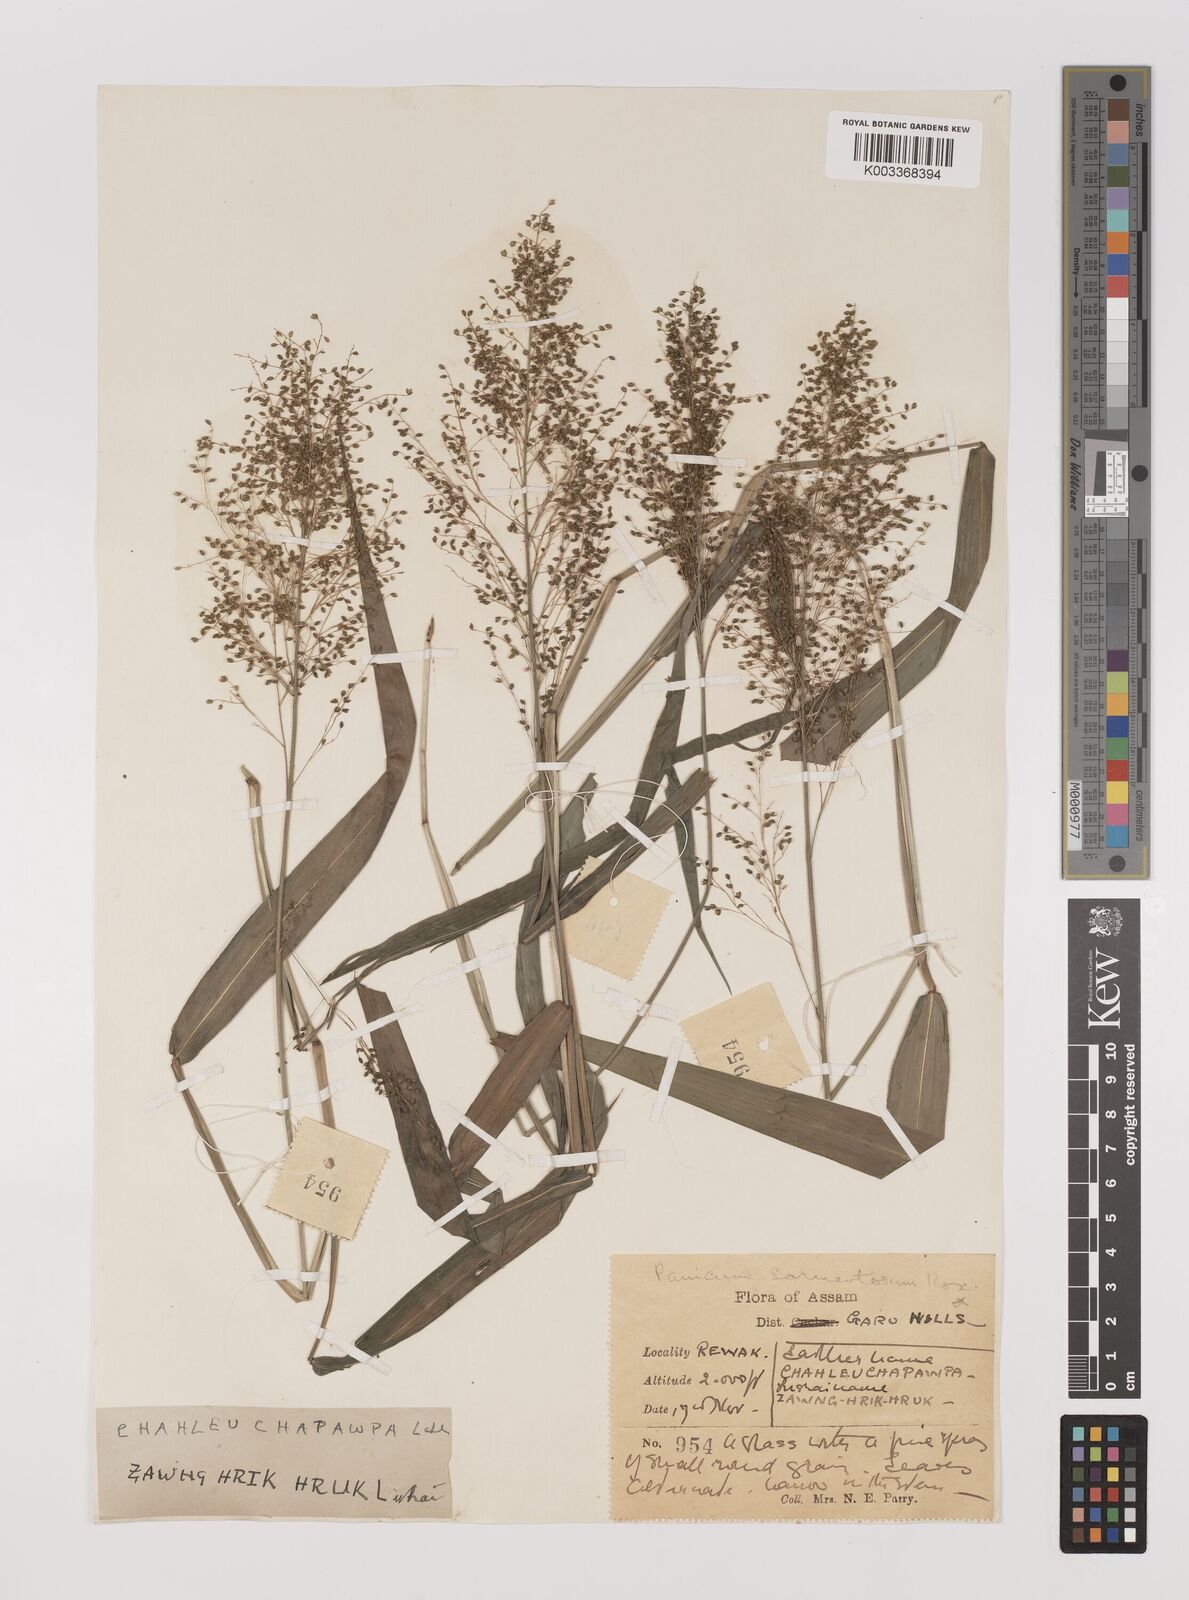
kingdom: Plantae
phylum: Tracheophyta
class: Liliopsida
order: Poales
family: Poaceae
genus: Panicum
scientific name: Panicum incomtum
